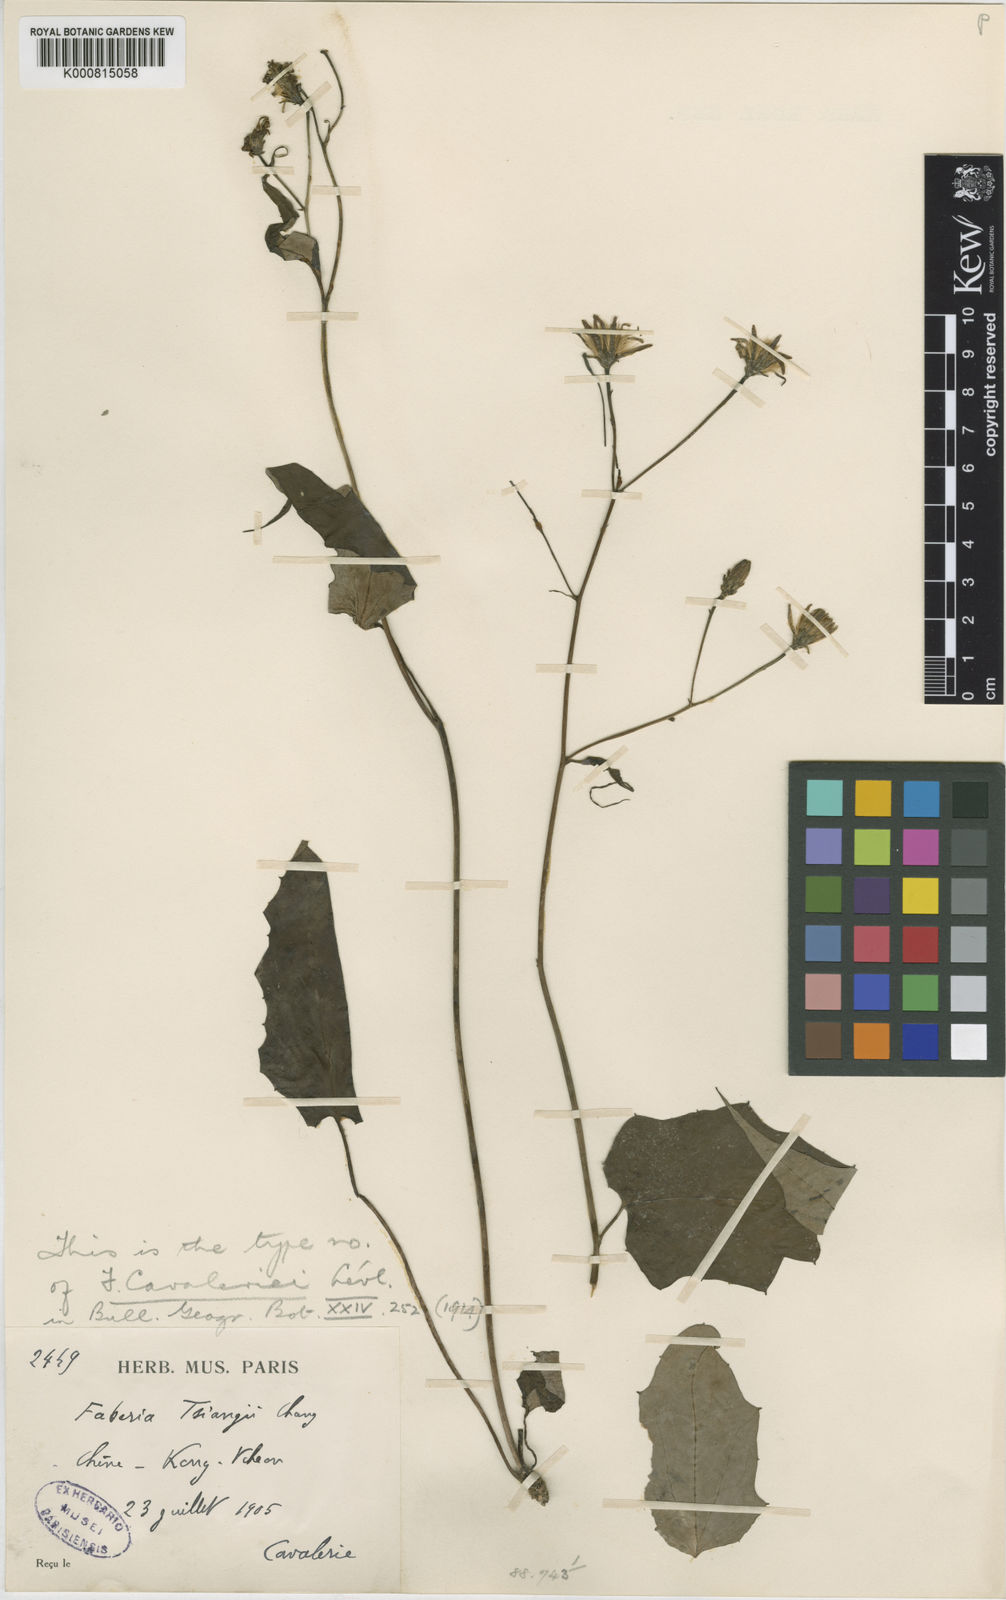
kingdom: Plantae
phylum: Tracheophyta
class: Magnoliopsida
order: Asterales
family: Asteraceae
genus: Prenanthes
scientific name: Prenanthes
